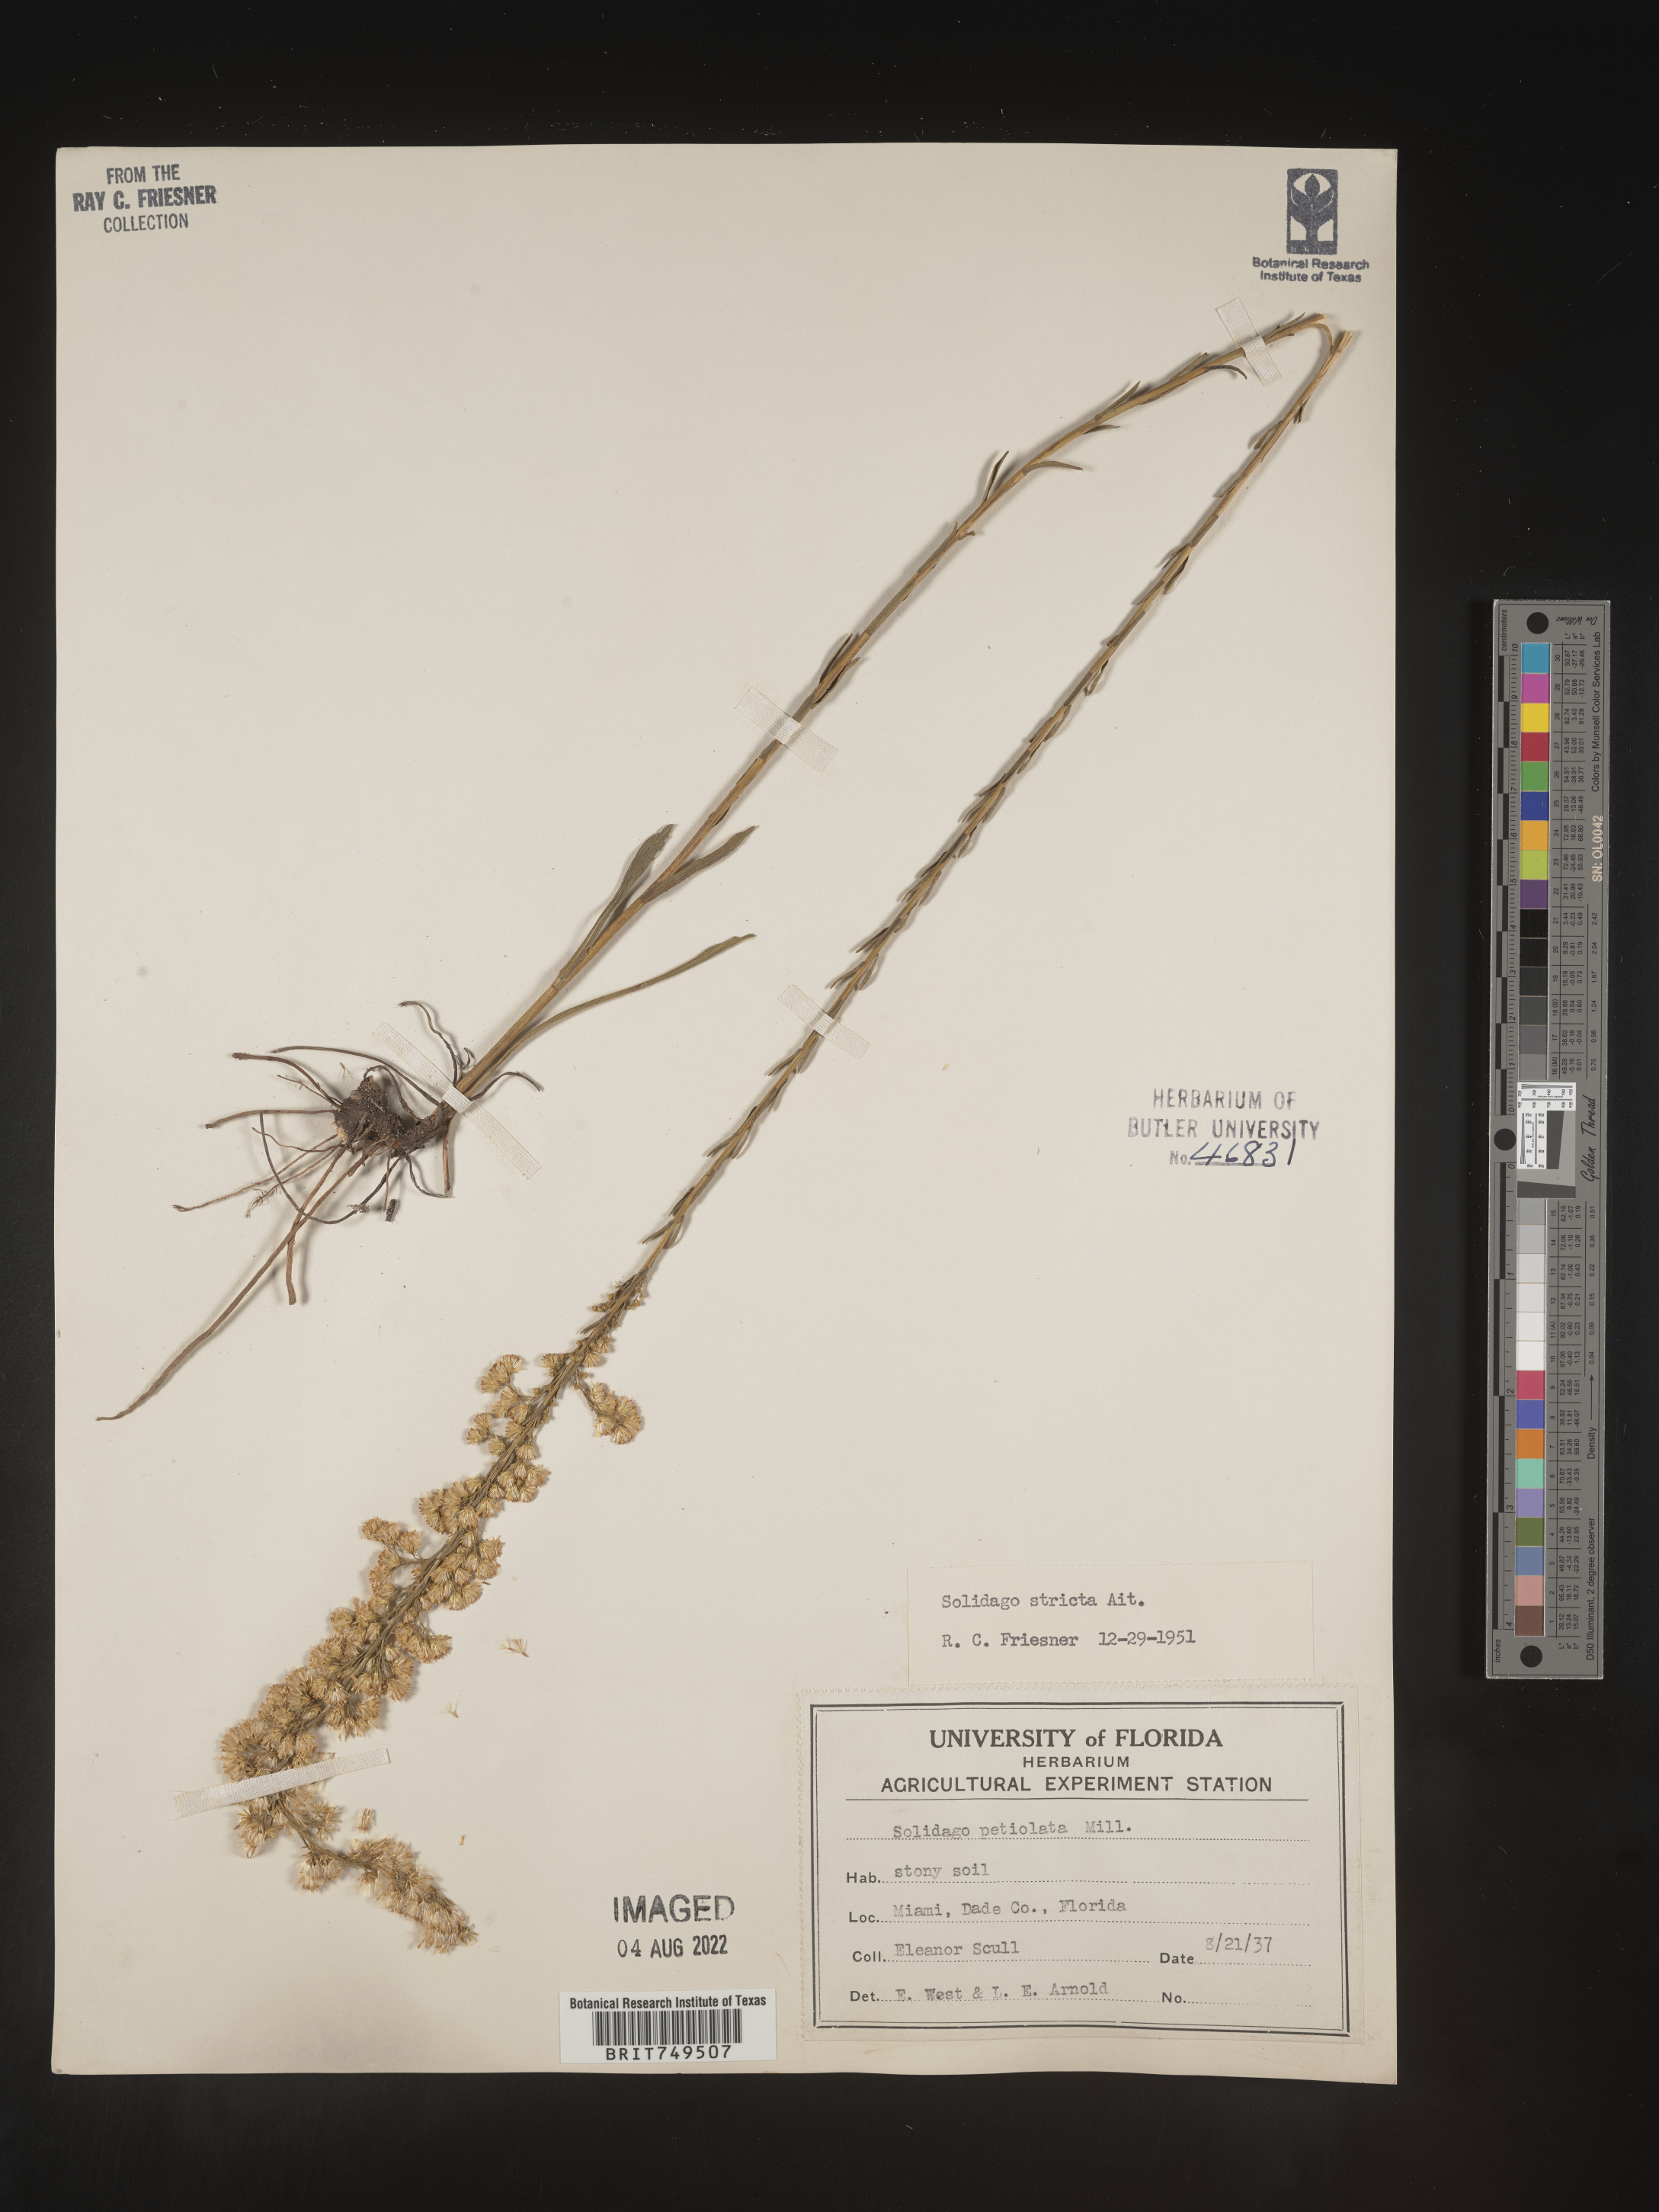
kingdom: Plantae
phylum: Tracheophyta
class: Magnoliopsida
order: Asterales
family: Asteraceae
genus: Solidago
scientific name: Solidago stricta
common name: Pine barren bog goldenrod
